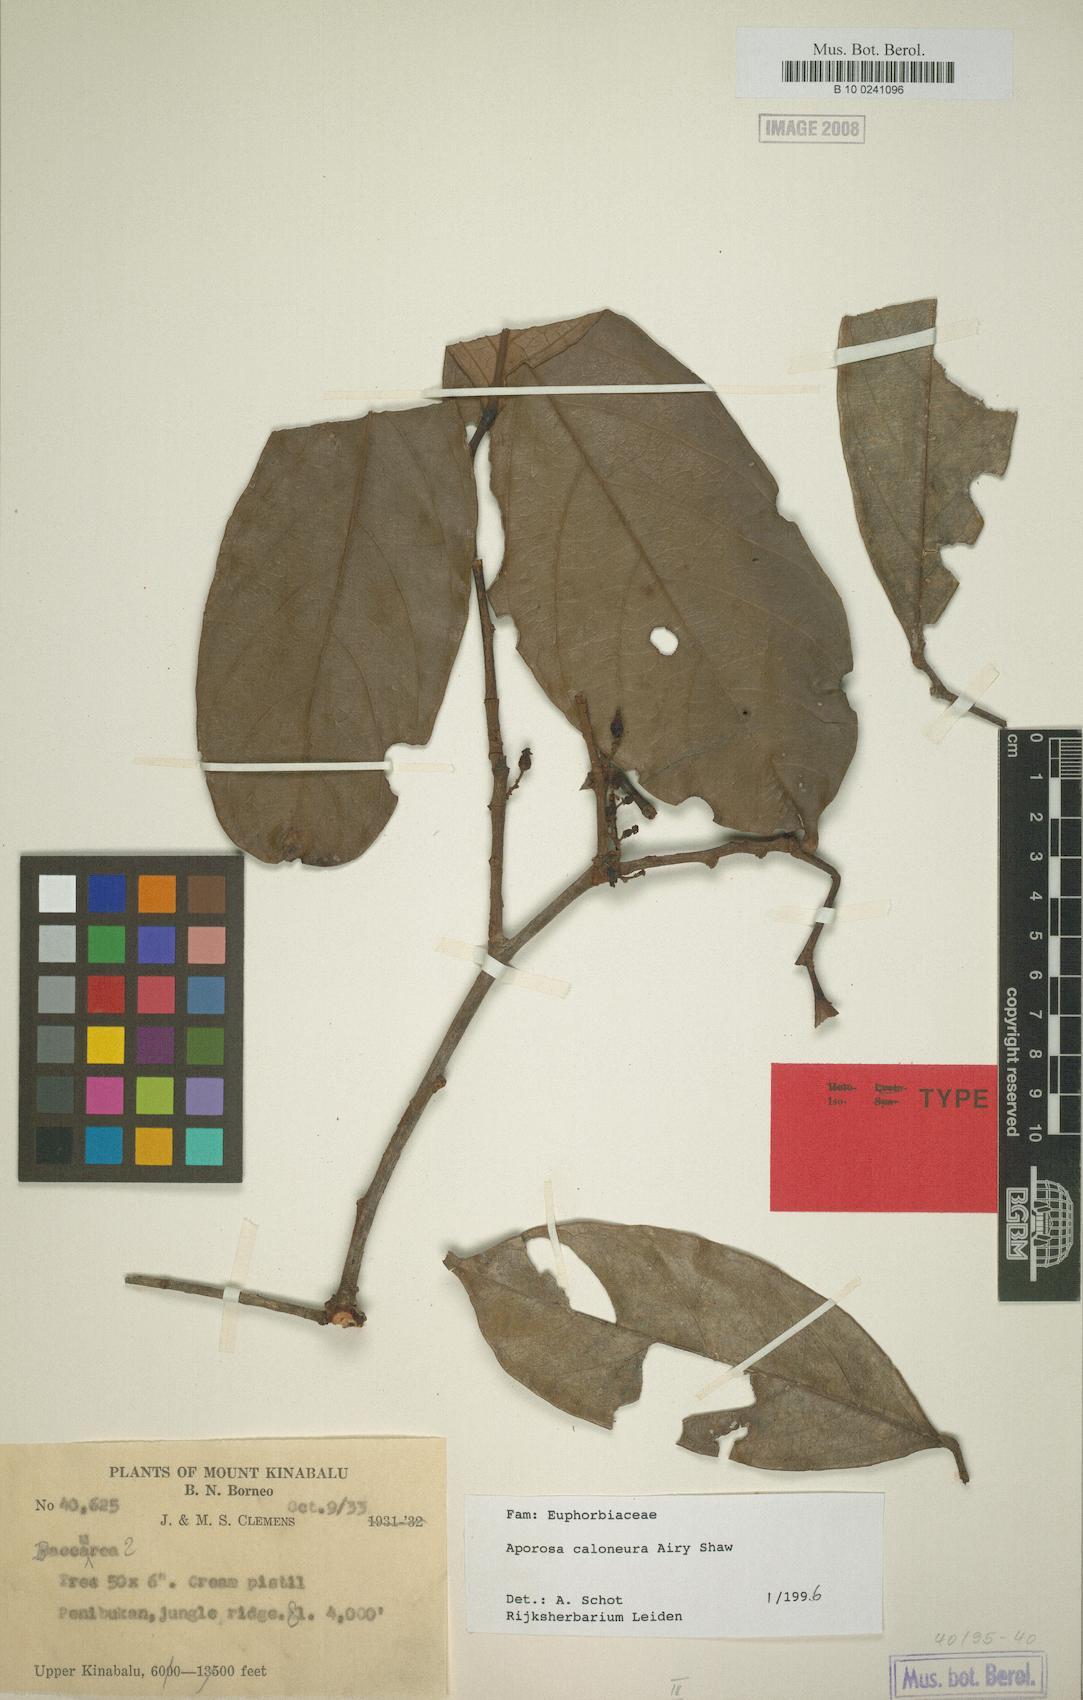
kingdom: Plantae
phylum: Tracheophyta
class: Magnoliopsida
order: Malpighiales
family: Phyllanthaceae
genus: Aporosa
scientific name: Aporosa caloneura
